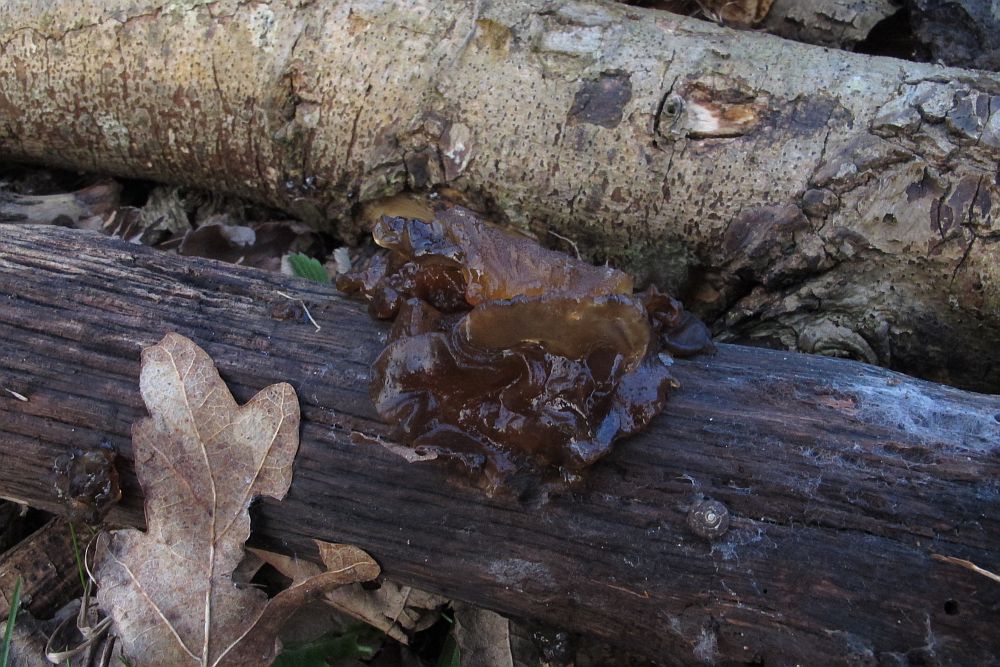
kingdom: Fungi
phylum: Basidiomycota
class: Tremellomycetes
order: Tremellales
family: Tremellaceae
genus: Phaeotremella
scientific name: Phaeotremella frondosa
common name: kæmpe-bævresvamp
